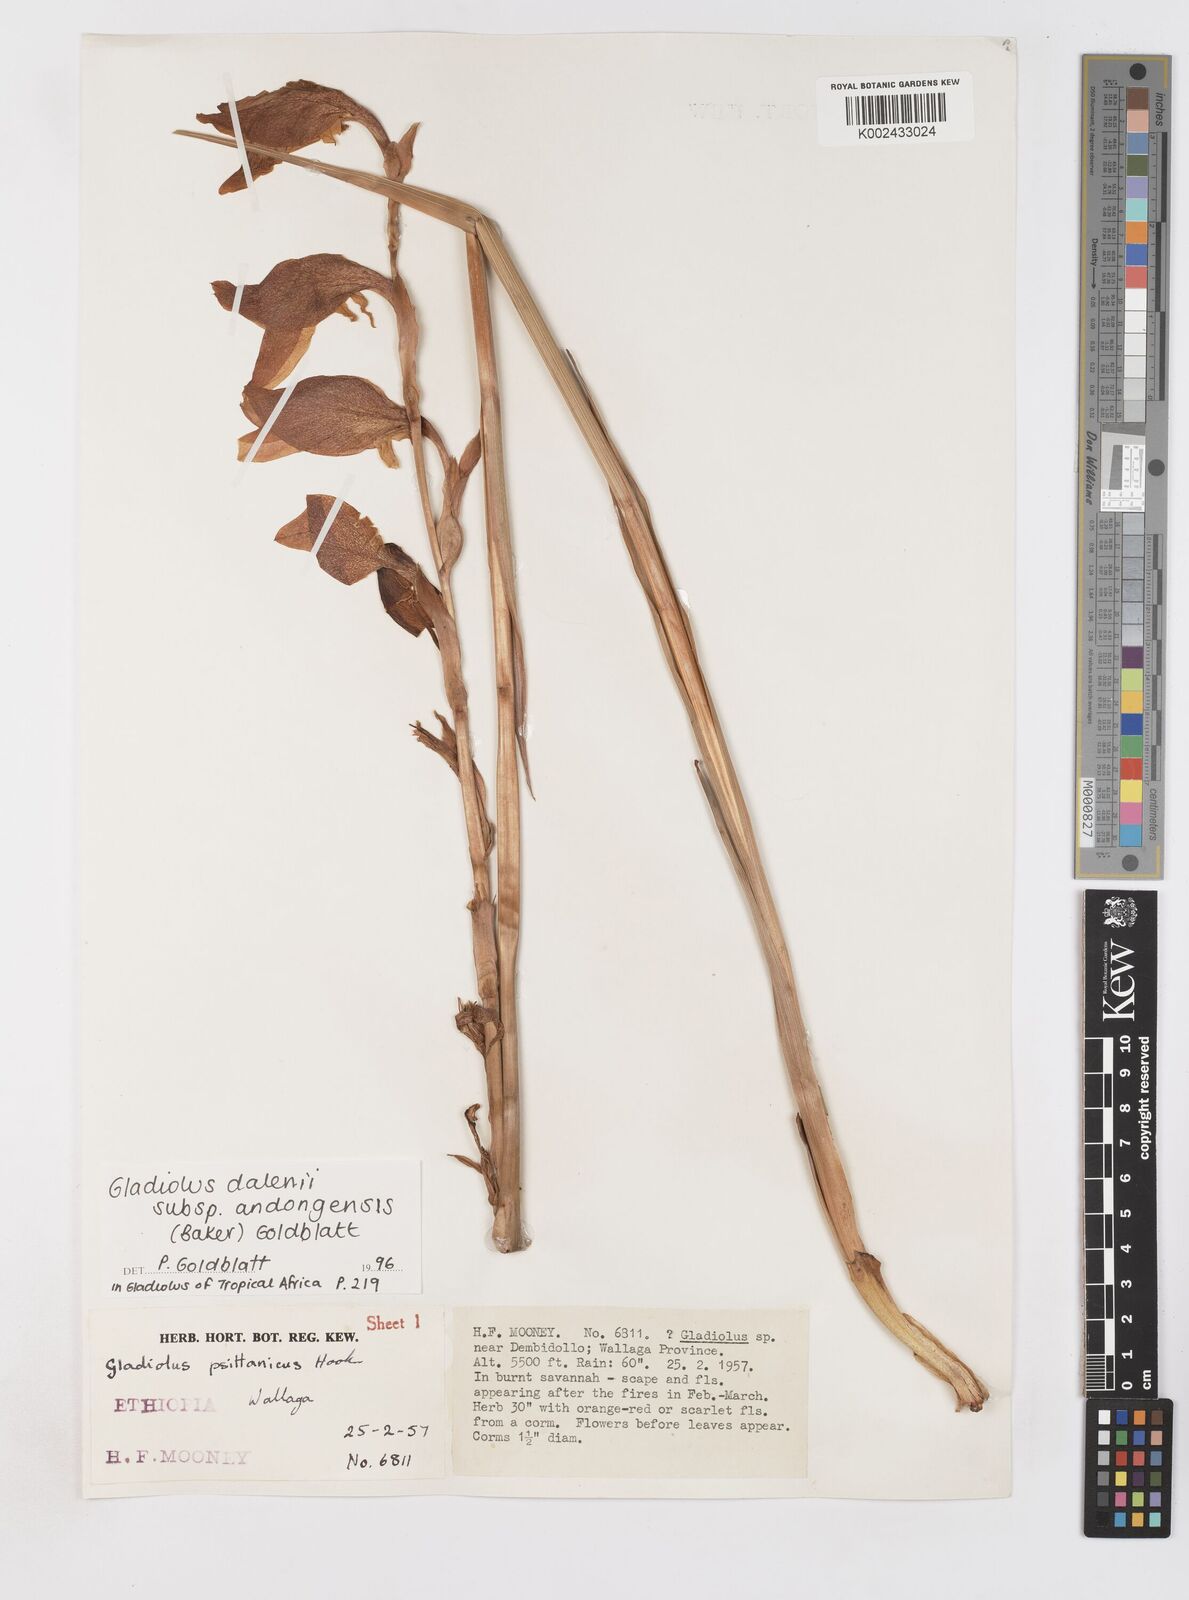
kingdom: Plantae
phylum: Tracheophyta
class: Liliopsida
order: Asparagales
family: Iridaceae
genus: Gladiolus
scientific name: Gladiolus dalenii
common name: Cornflag
